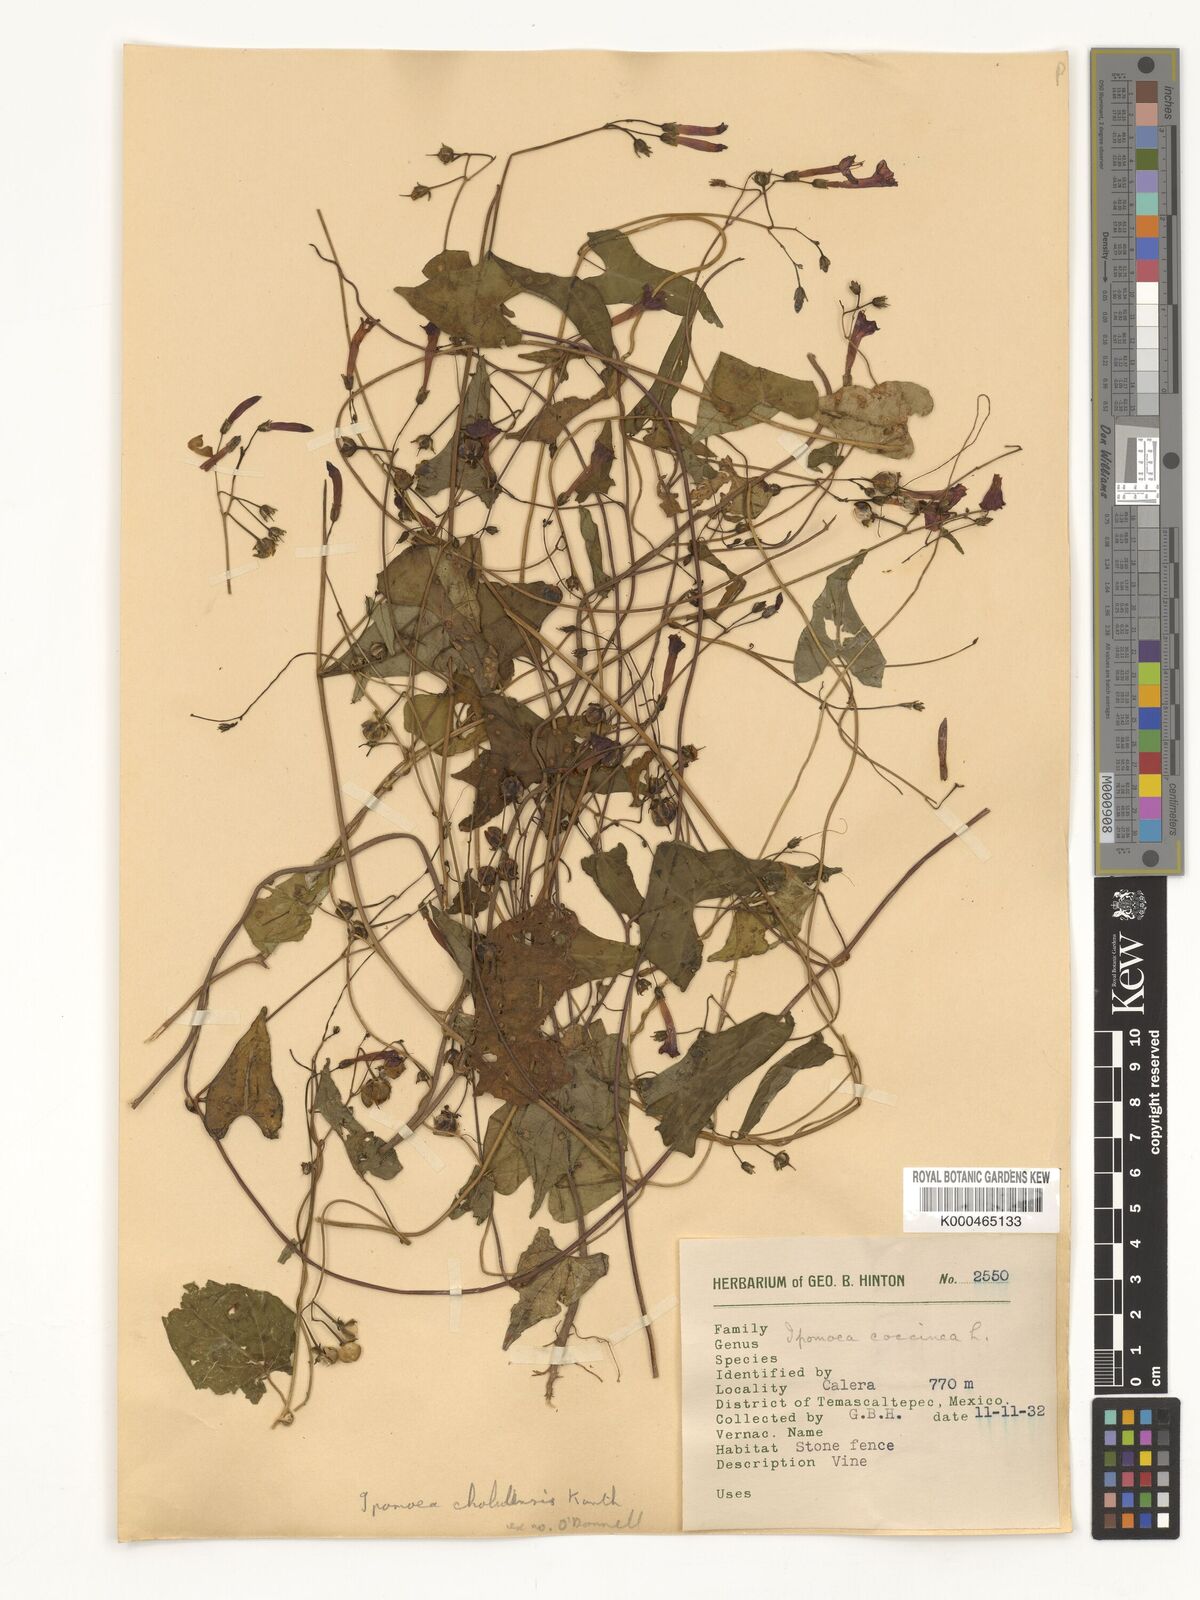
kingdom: Plantae
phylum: Tracheophyta
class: Magnoliopsida
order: Solanales
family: Convolvulaceae
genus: Ipomoea
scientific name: Ipomoea cholulensis
